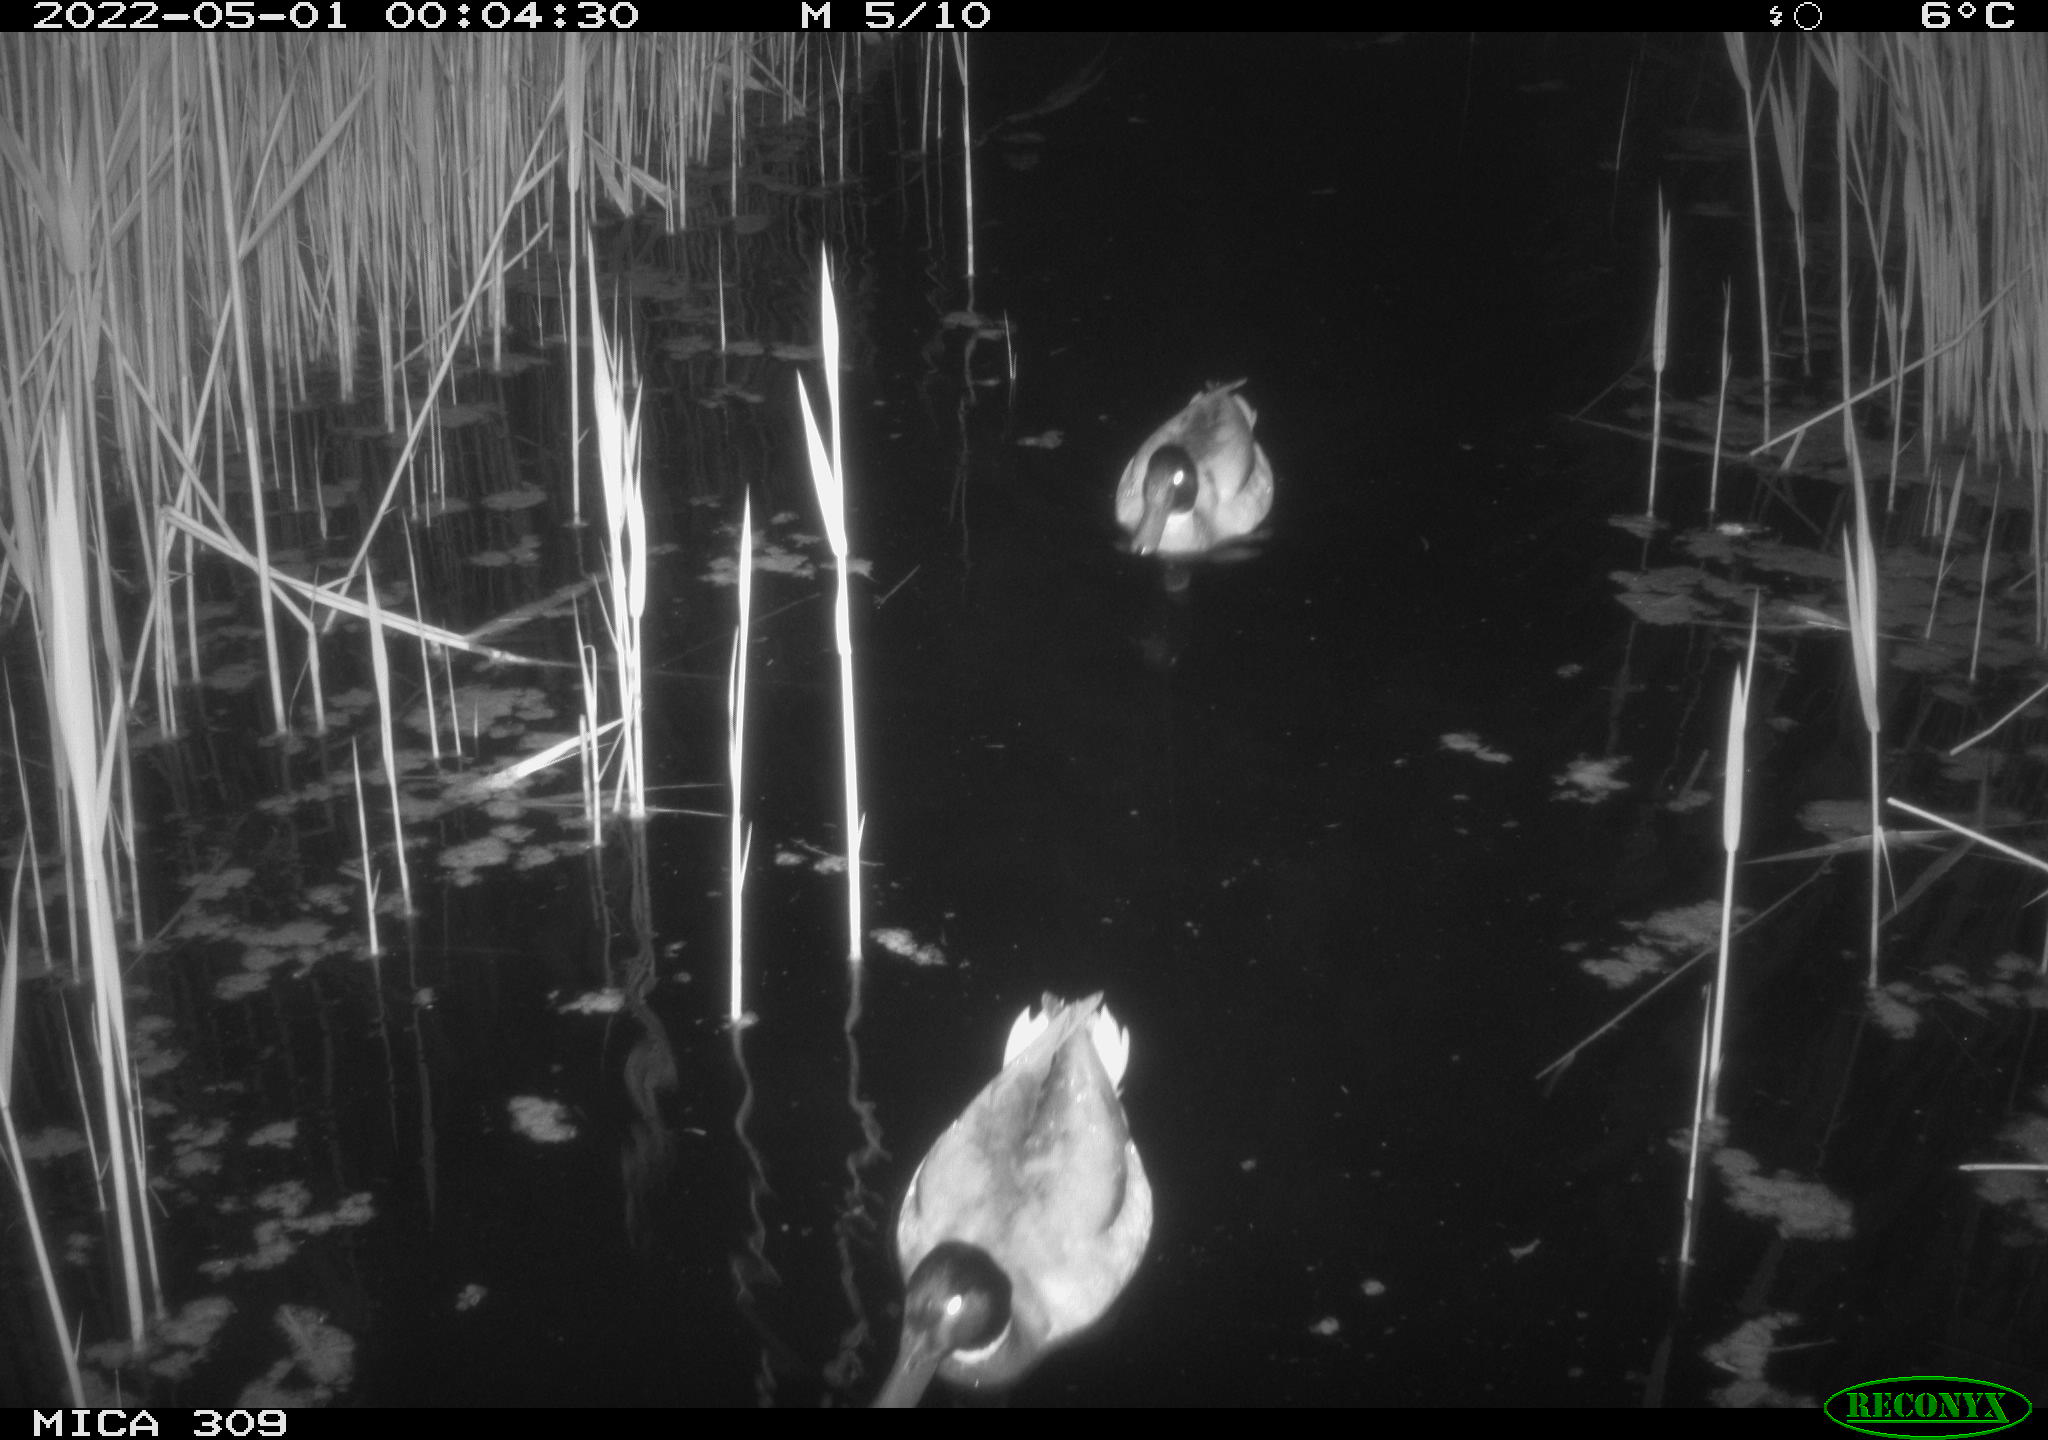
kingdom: Animalia
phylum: Chordata
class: Aves
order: Anseriformes
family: Anatidae
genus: Anas
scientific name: Anas platyrhynchos
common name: Mallard
